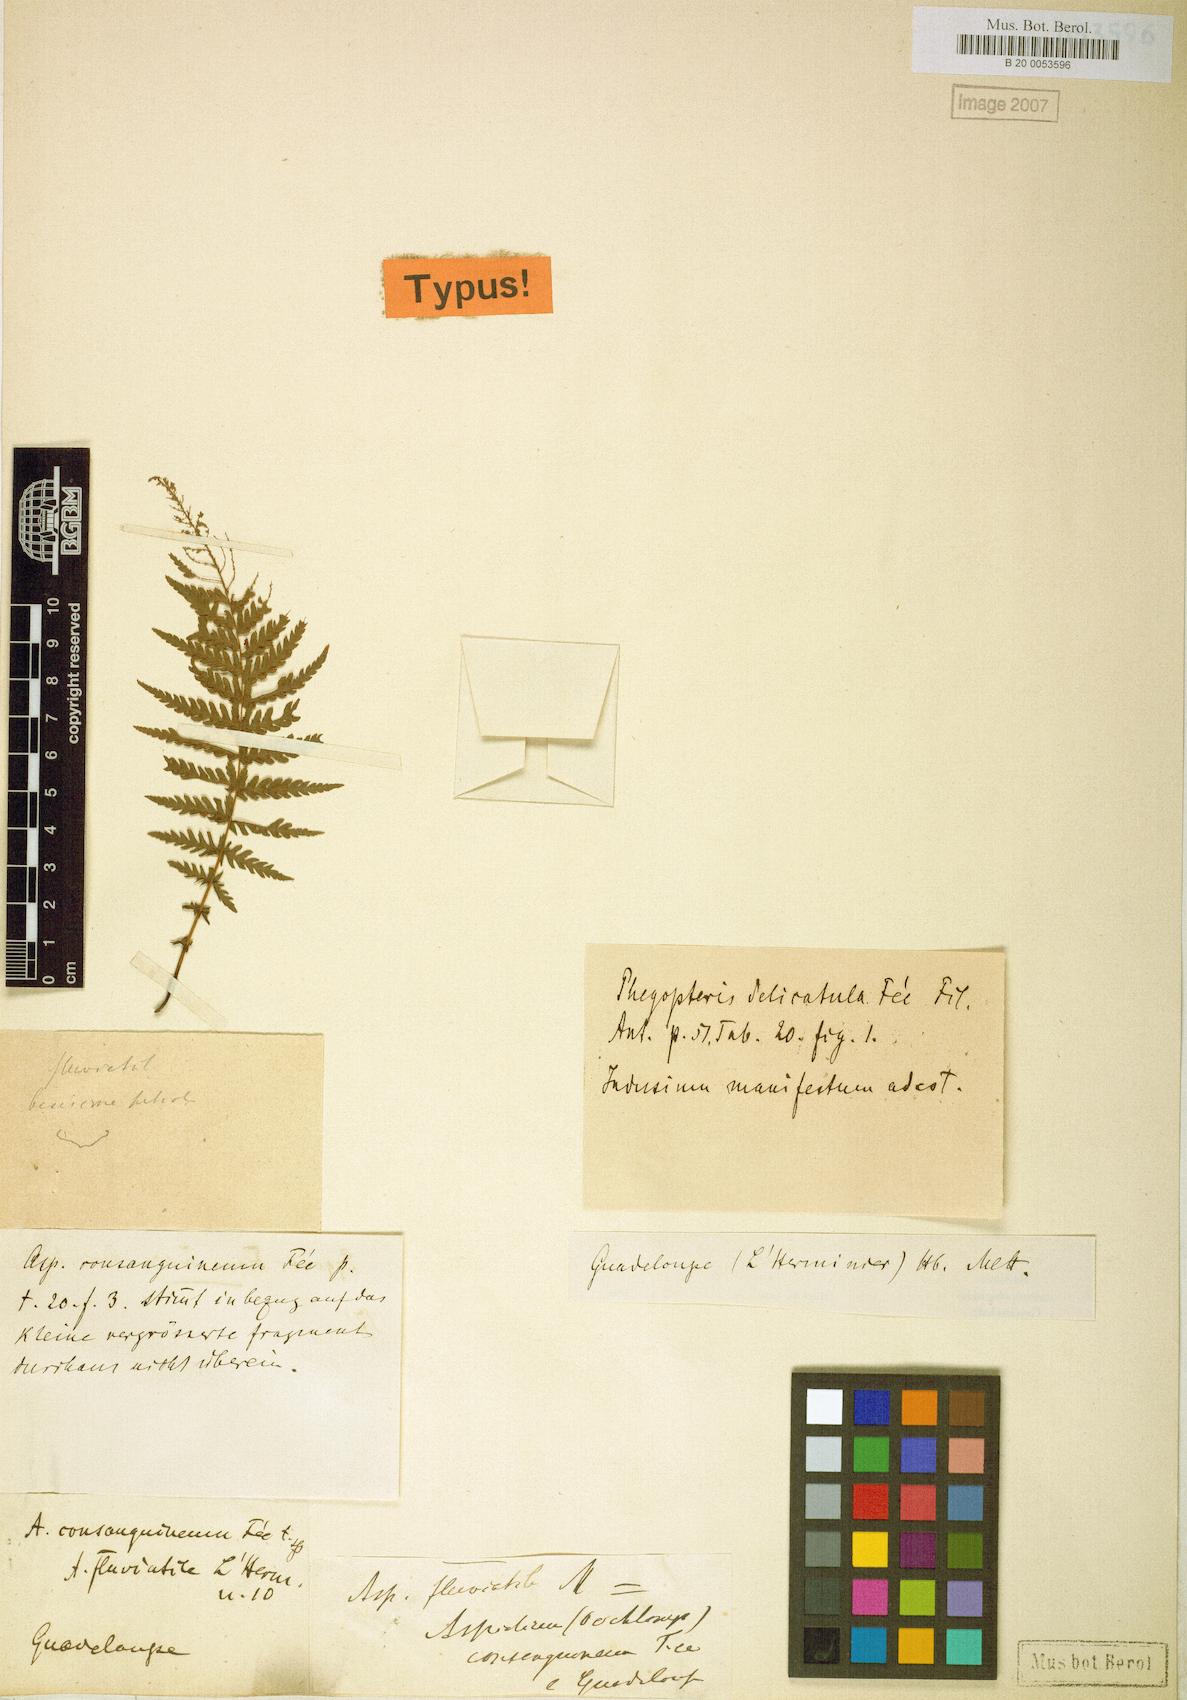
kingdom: Plantae
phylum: Tracheophyta
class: Polypodiopsida
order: Polypodiales
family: Thelypteridaceae
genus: Amauropelta
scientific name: Amauropelta consanguinea
